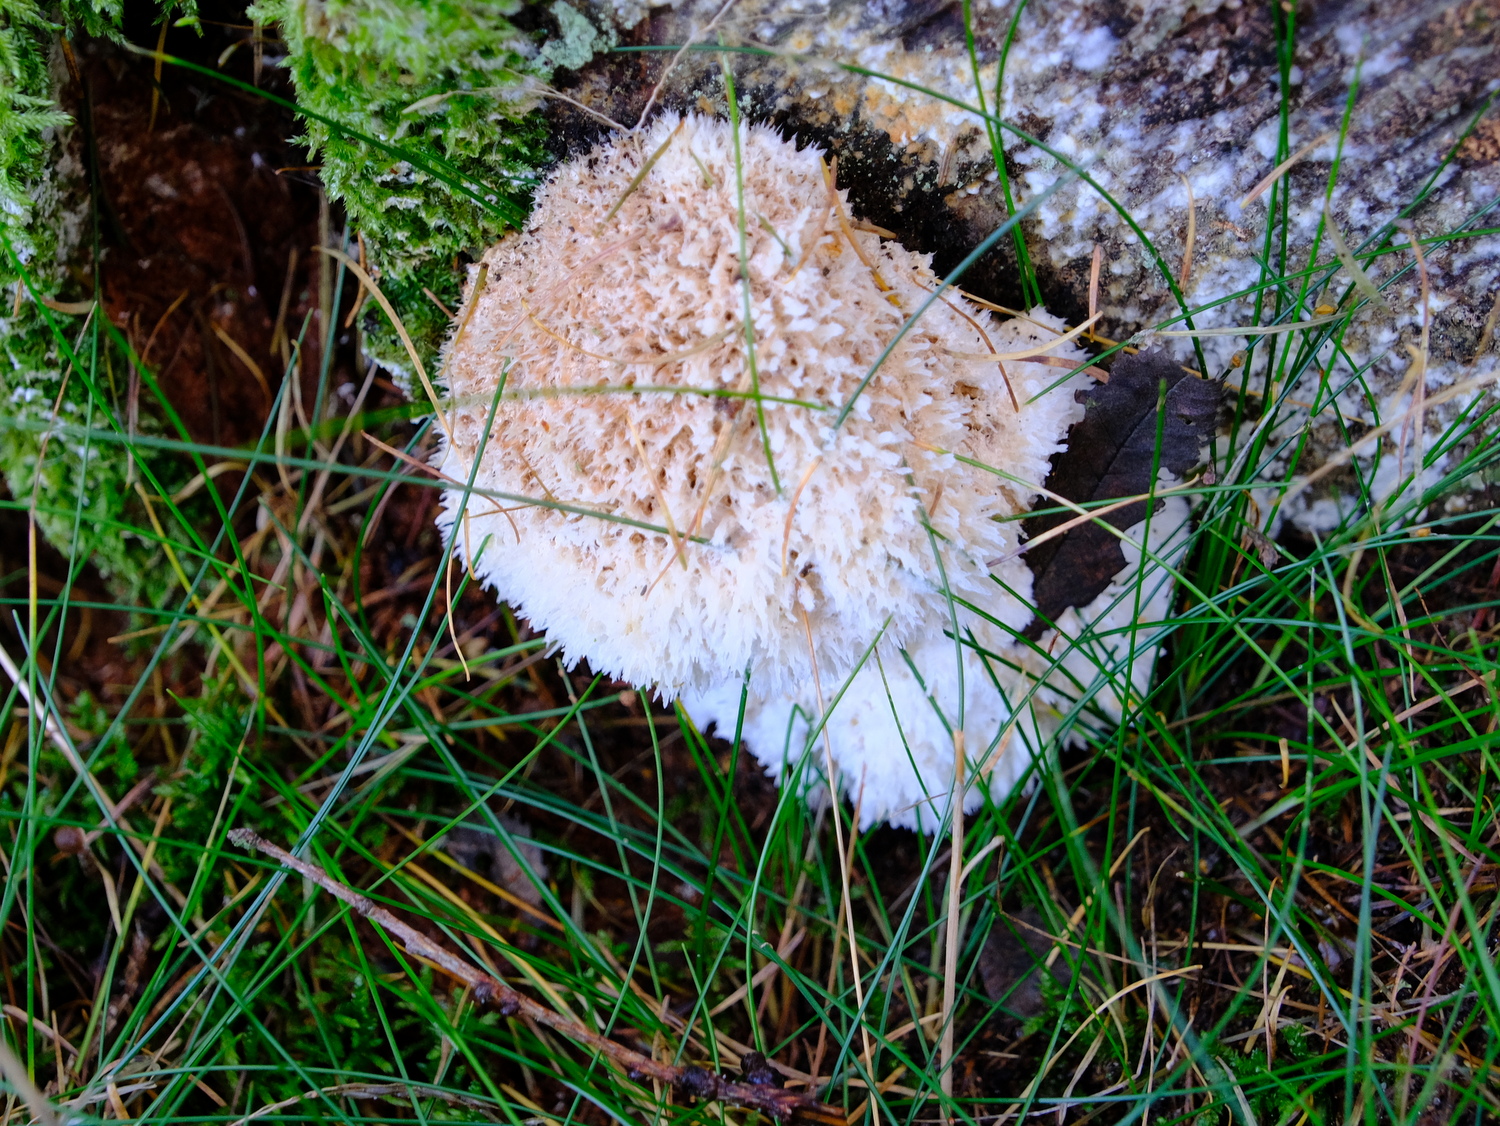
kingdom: Fungi
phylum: Basidiomycota
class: Agaricomycetes
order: Polyporales
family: Dacryobolaceae
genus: Postia
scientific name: Postia ptychogaster
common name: støvende kødporesvamp
